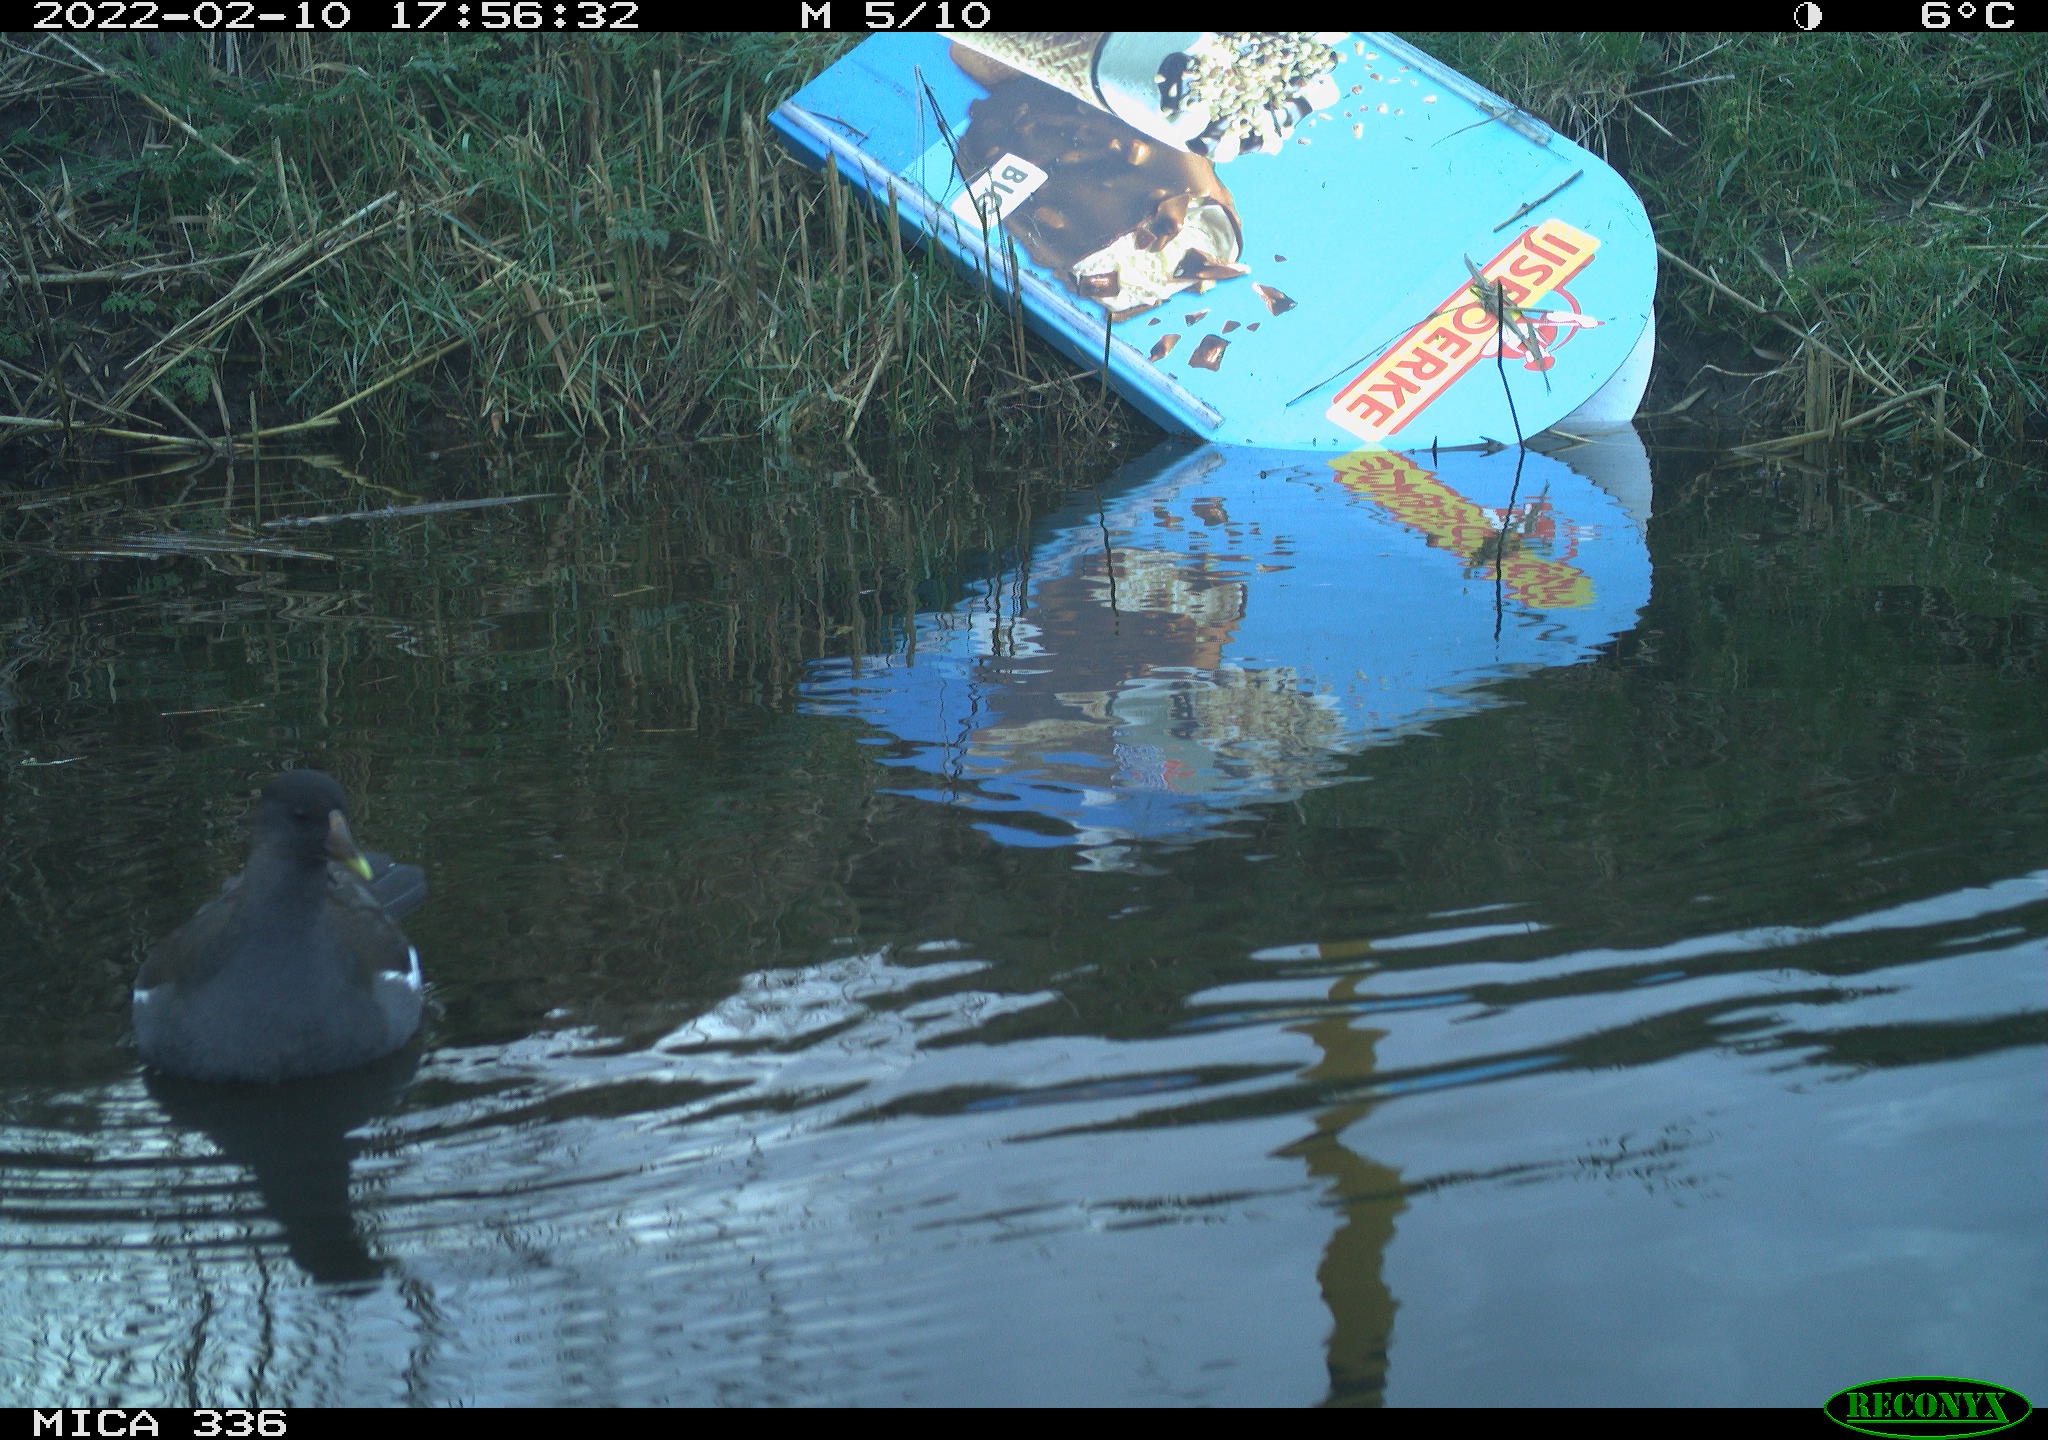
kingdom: Animalia
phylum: Chordata
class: Aves
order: Gruiformes
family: Rallidae
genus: Gallinula
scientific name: Gallinula chloropus
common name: Common moorhen
